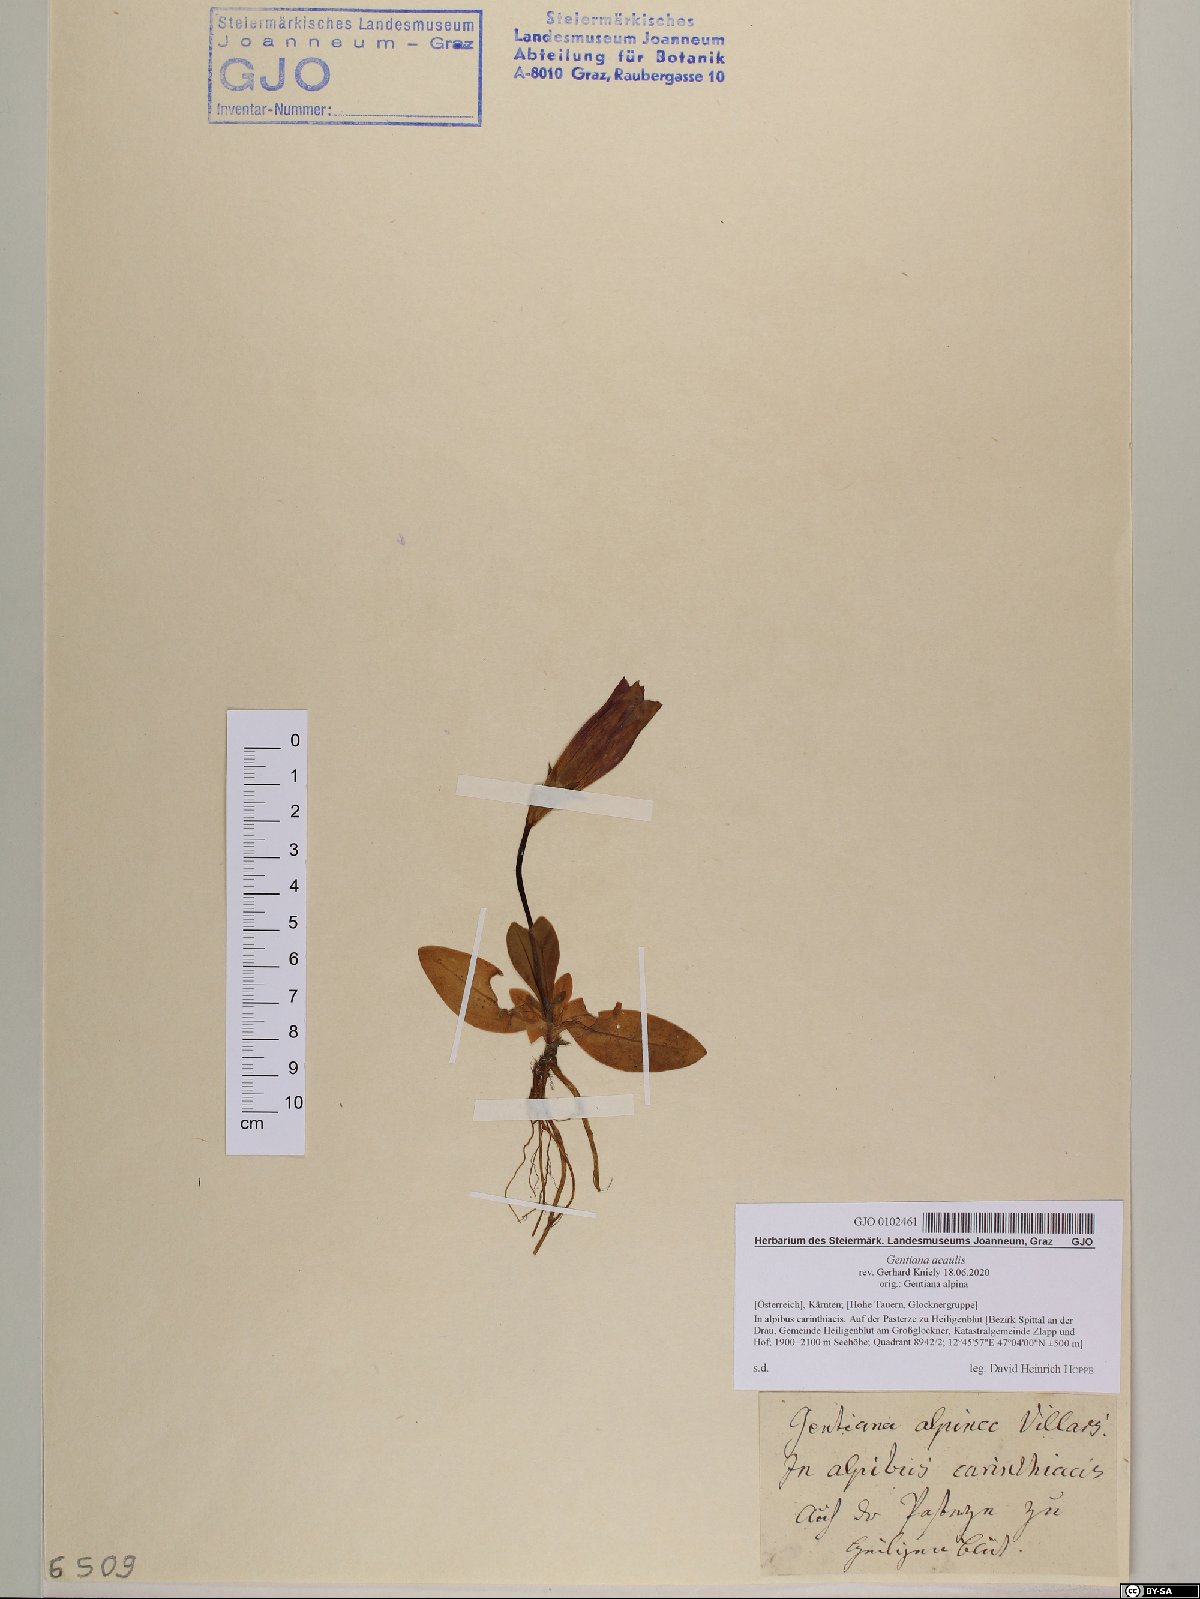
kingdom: Plantae
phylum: Tracheophyta
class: Magnoliopsida
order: Gentianales
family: Gentianaceae
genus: Gentiana
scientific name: Gentiana acaulis
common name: Trumpet gentian
